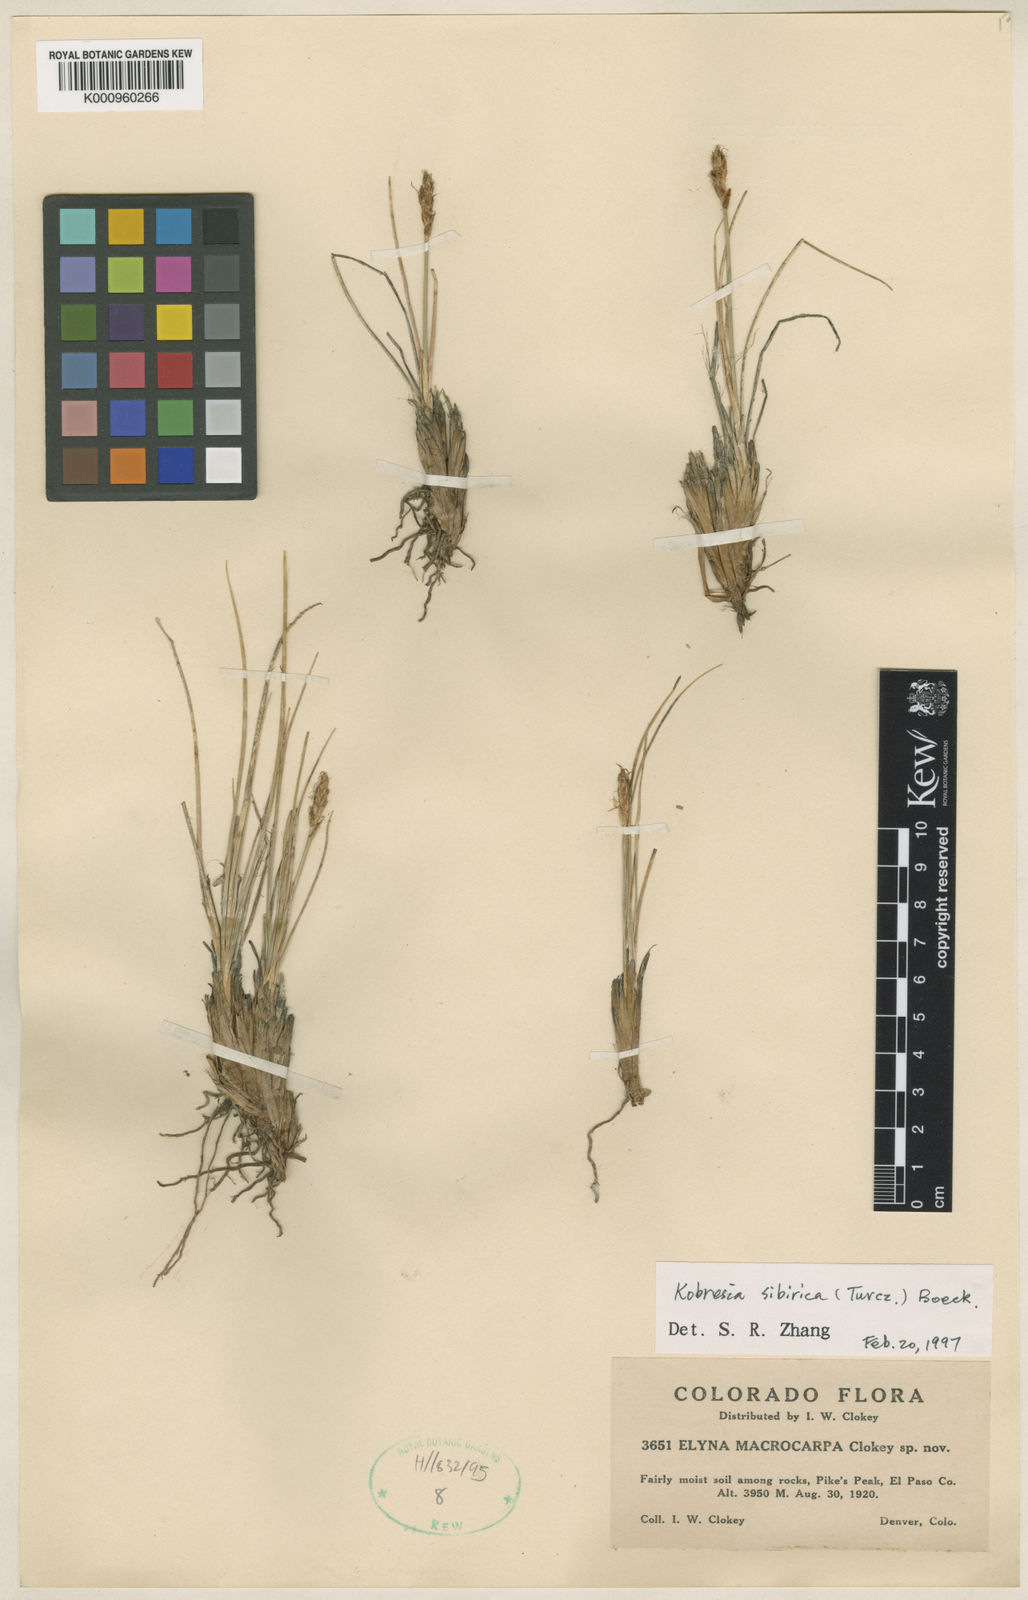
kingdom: Plantae
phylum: Tracheophyta
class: Liliopsida
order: Poales
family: Cyperaceae
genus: Carex
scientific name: Carex
